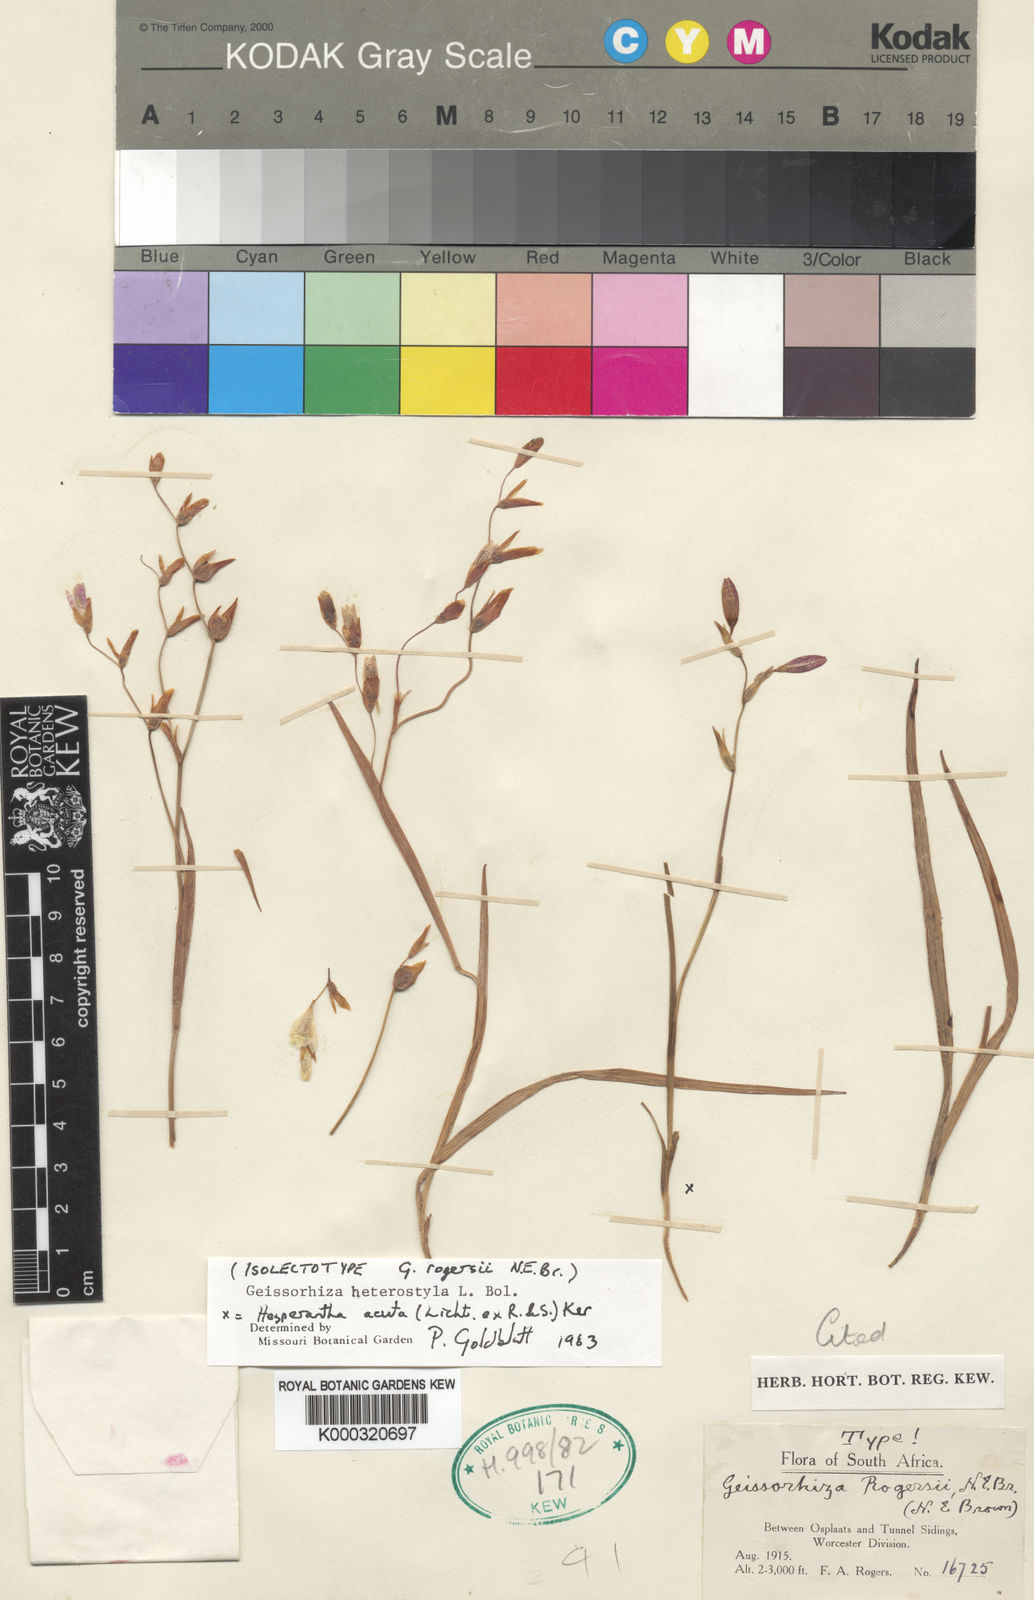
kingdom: Plantae
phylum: Tracheophyta
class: Liliopsida
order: Asparagales
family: Iridaceae
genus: Geissorhiza
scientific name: Geissorhiza heterostyla
